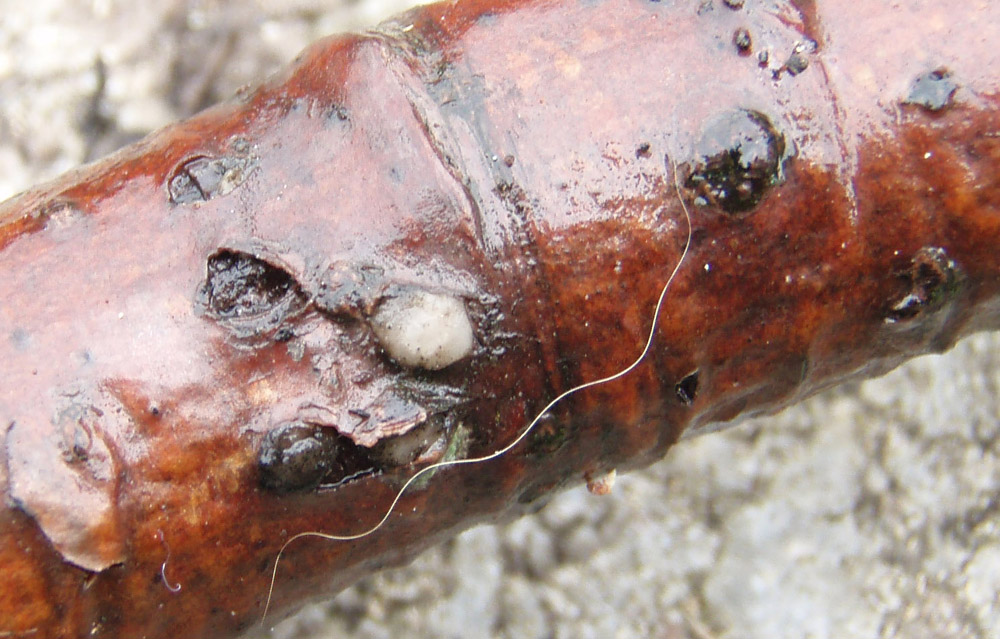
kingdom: Fungi
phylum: Basidiomycota
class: Pucciniomycetes
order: Platygloeales
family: Platygloeaceae
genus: Platygloea
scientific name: Platygloea disciformis
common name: linde-slimklat
